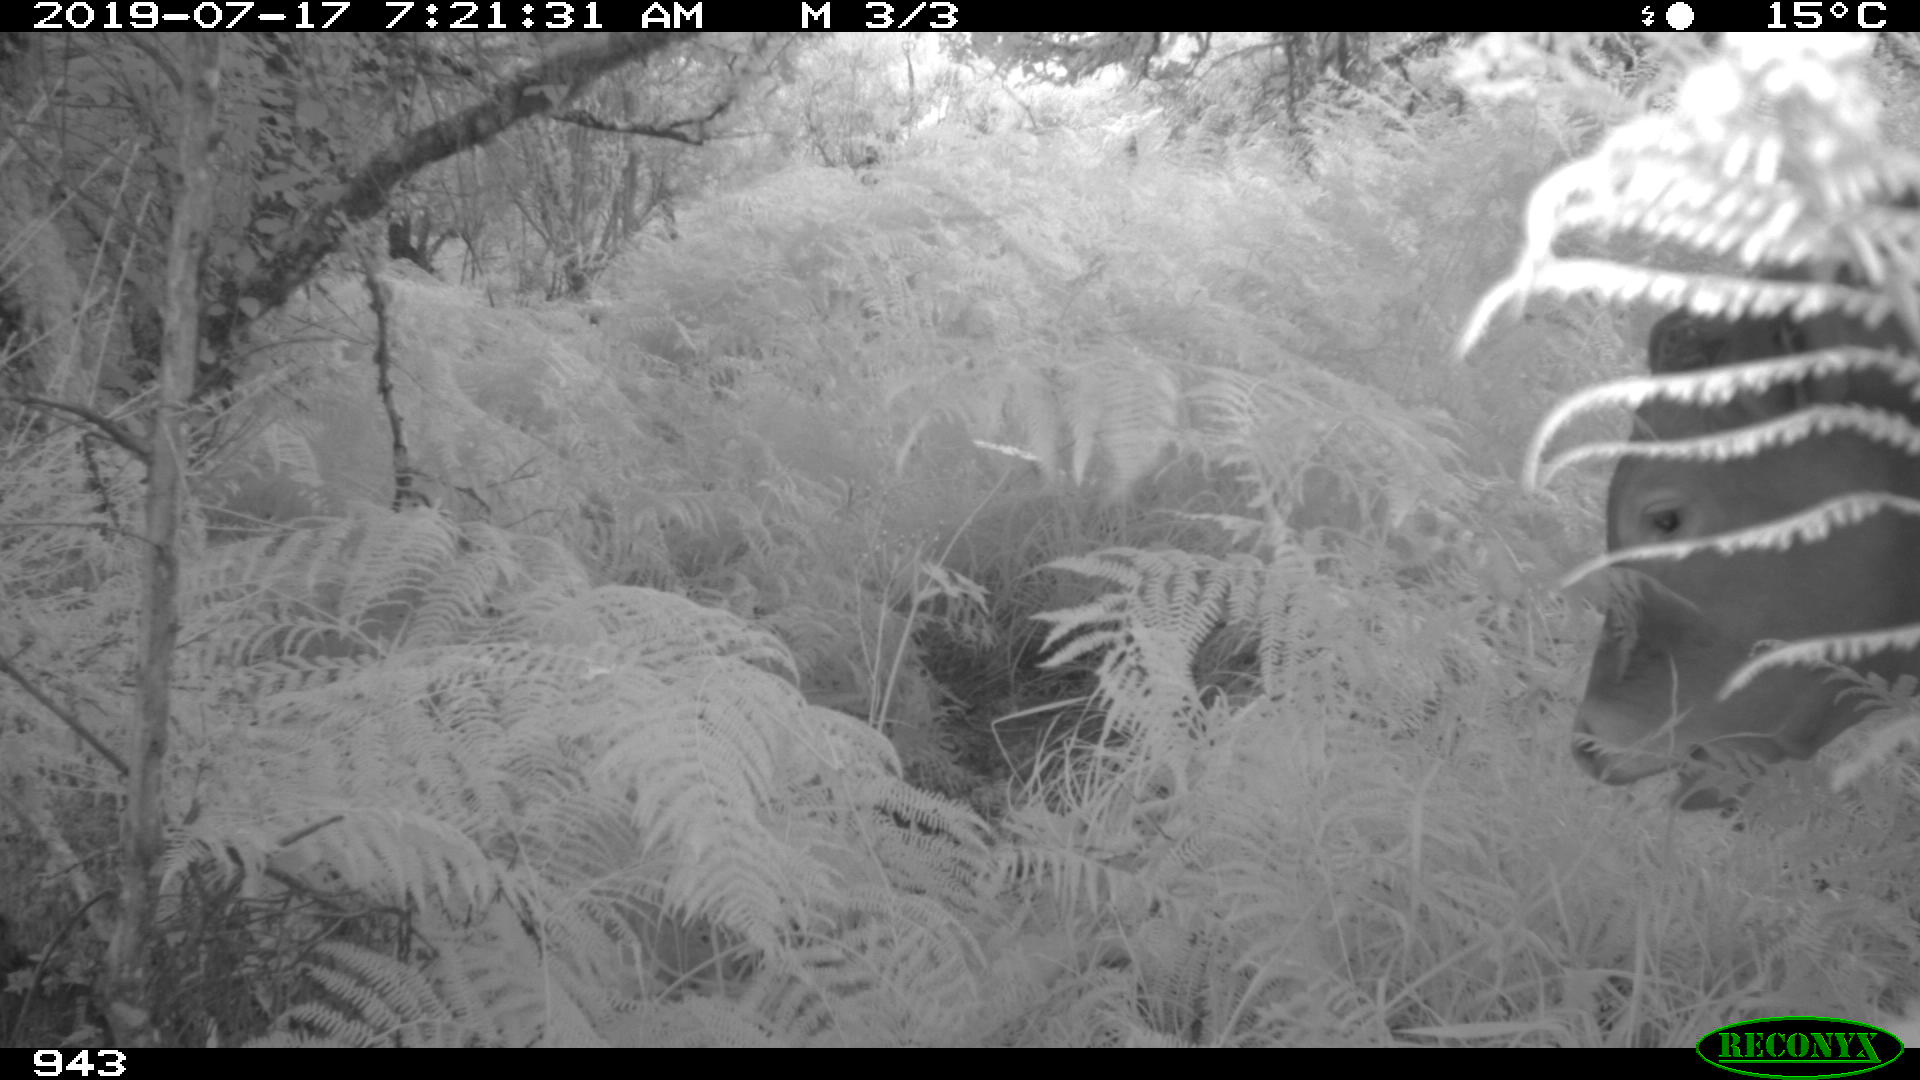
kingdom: Animalia
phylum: Chordata
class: Mammalia
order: Artiodactyla
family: Bovidae
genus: Bos
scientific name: Bos taurus
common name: Domesticated cattle
